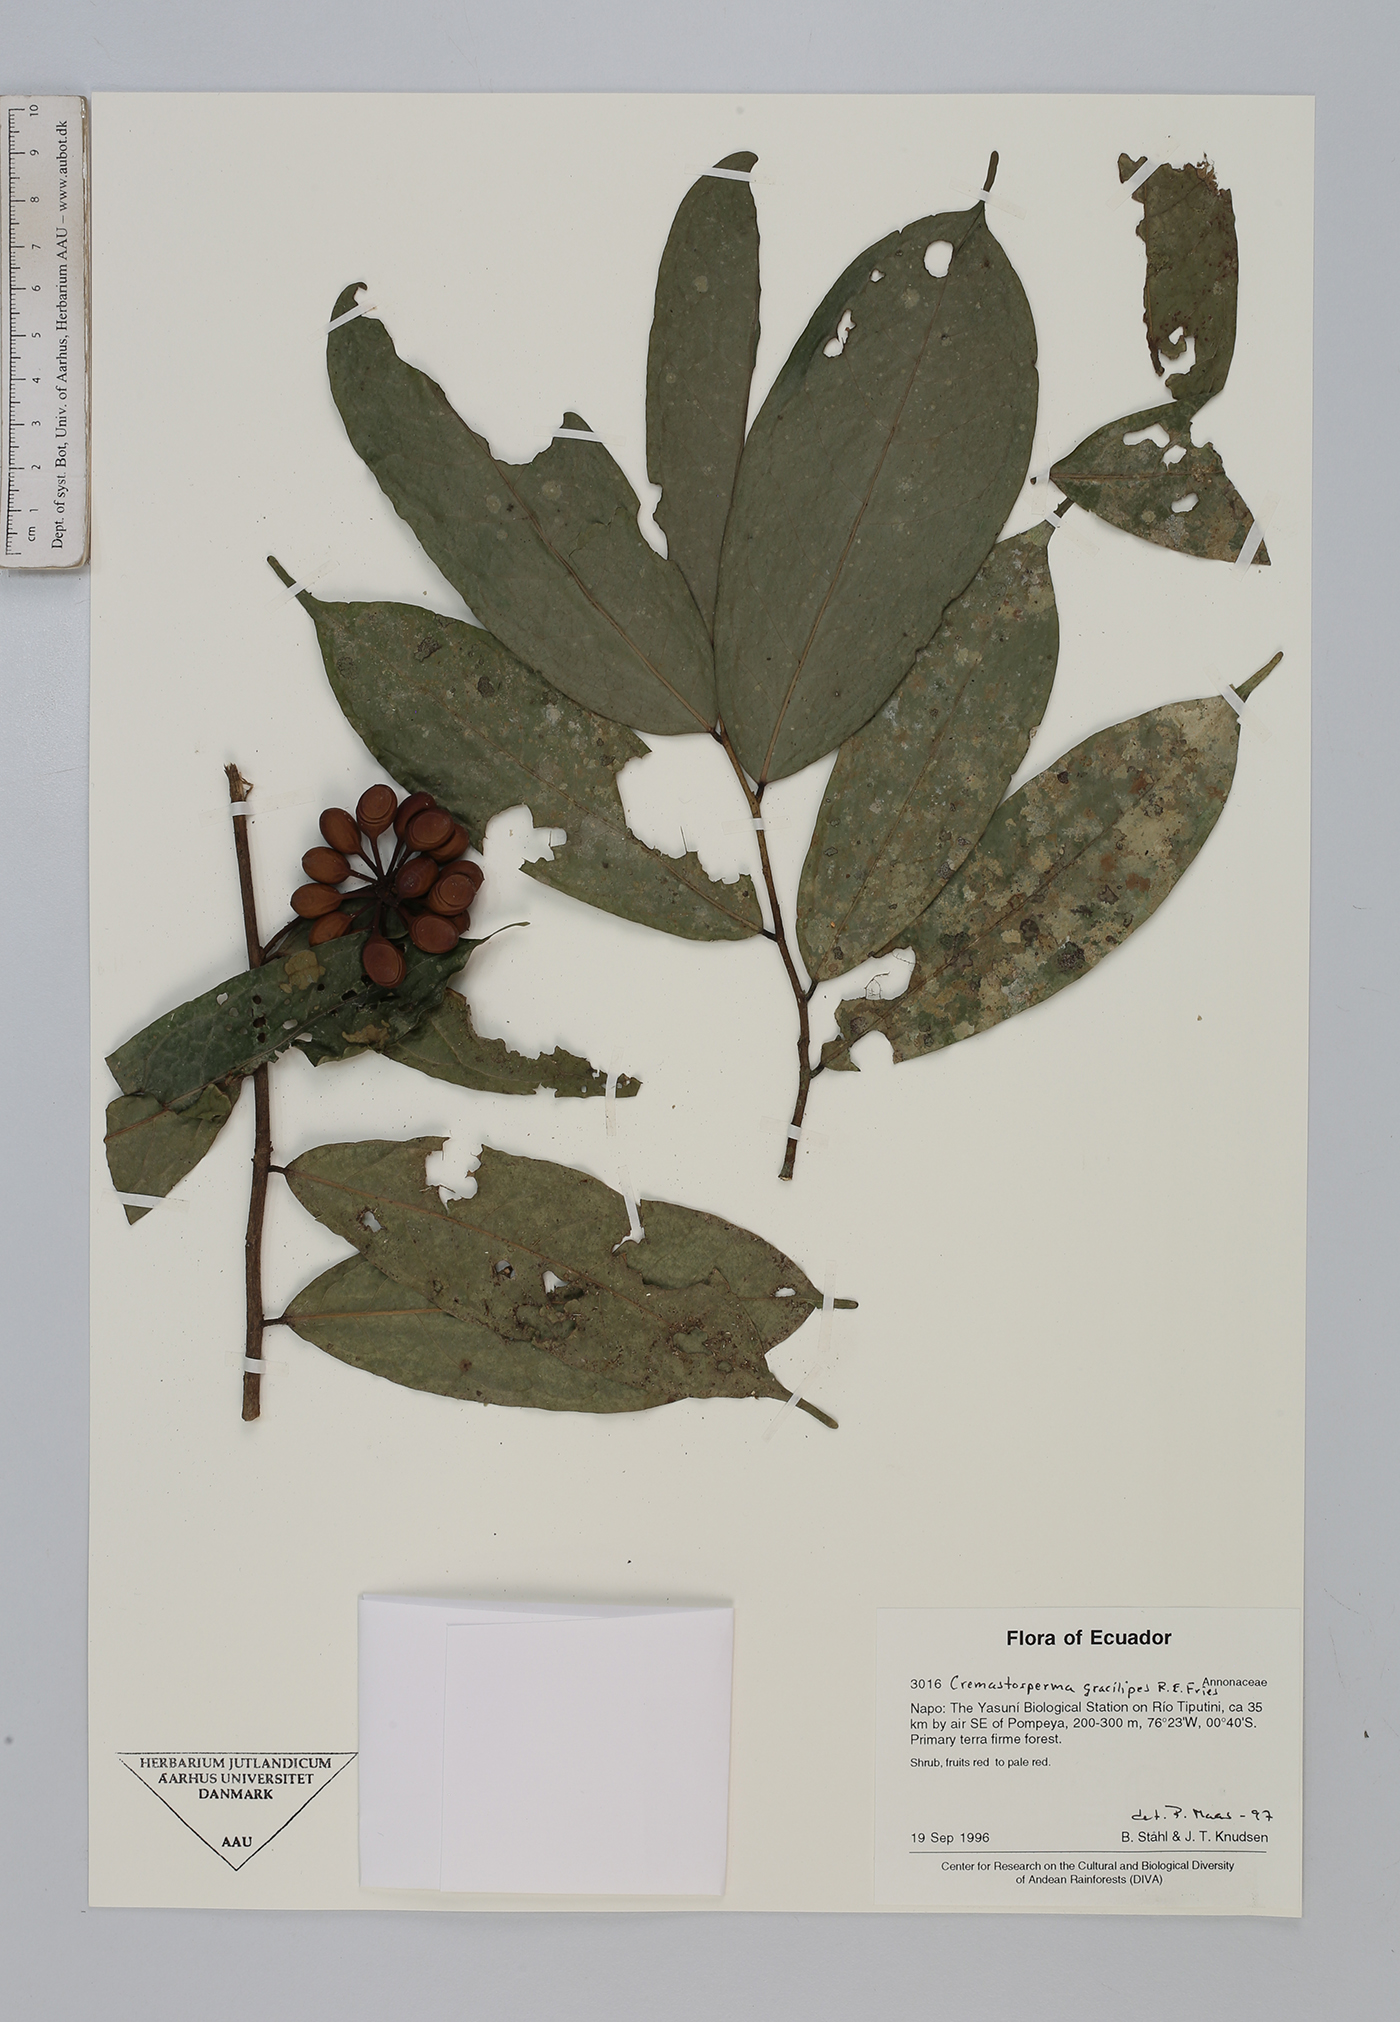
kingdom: Plantae
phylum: Tracheophyta
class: Magnoliopsida
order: Magnoliales
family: Annonaceae
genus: Cremastosperma
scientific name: Cremastosperma gracilipes
